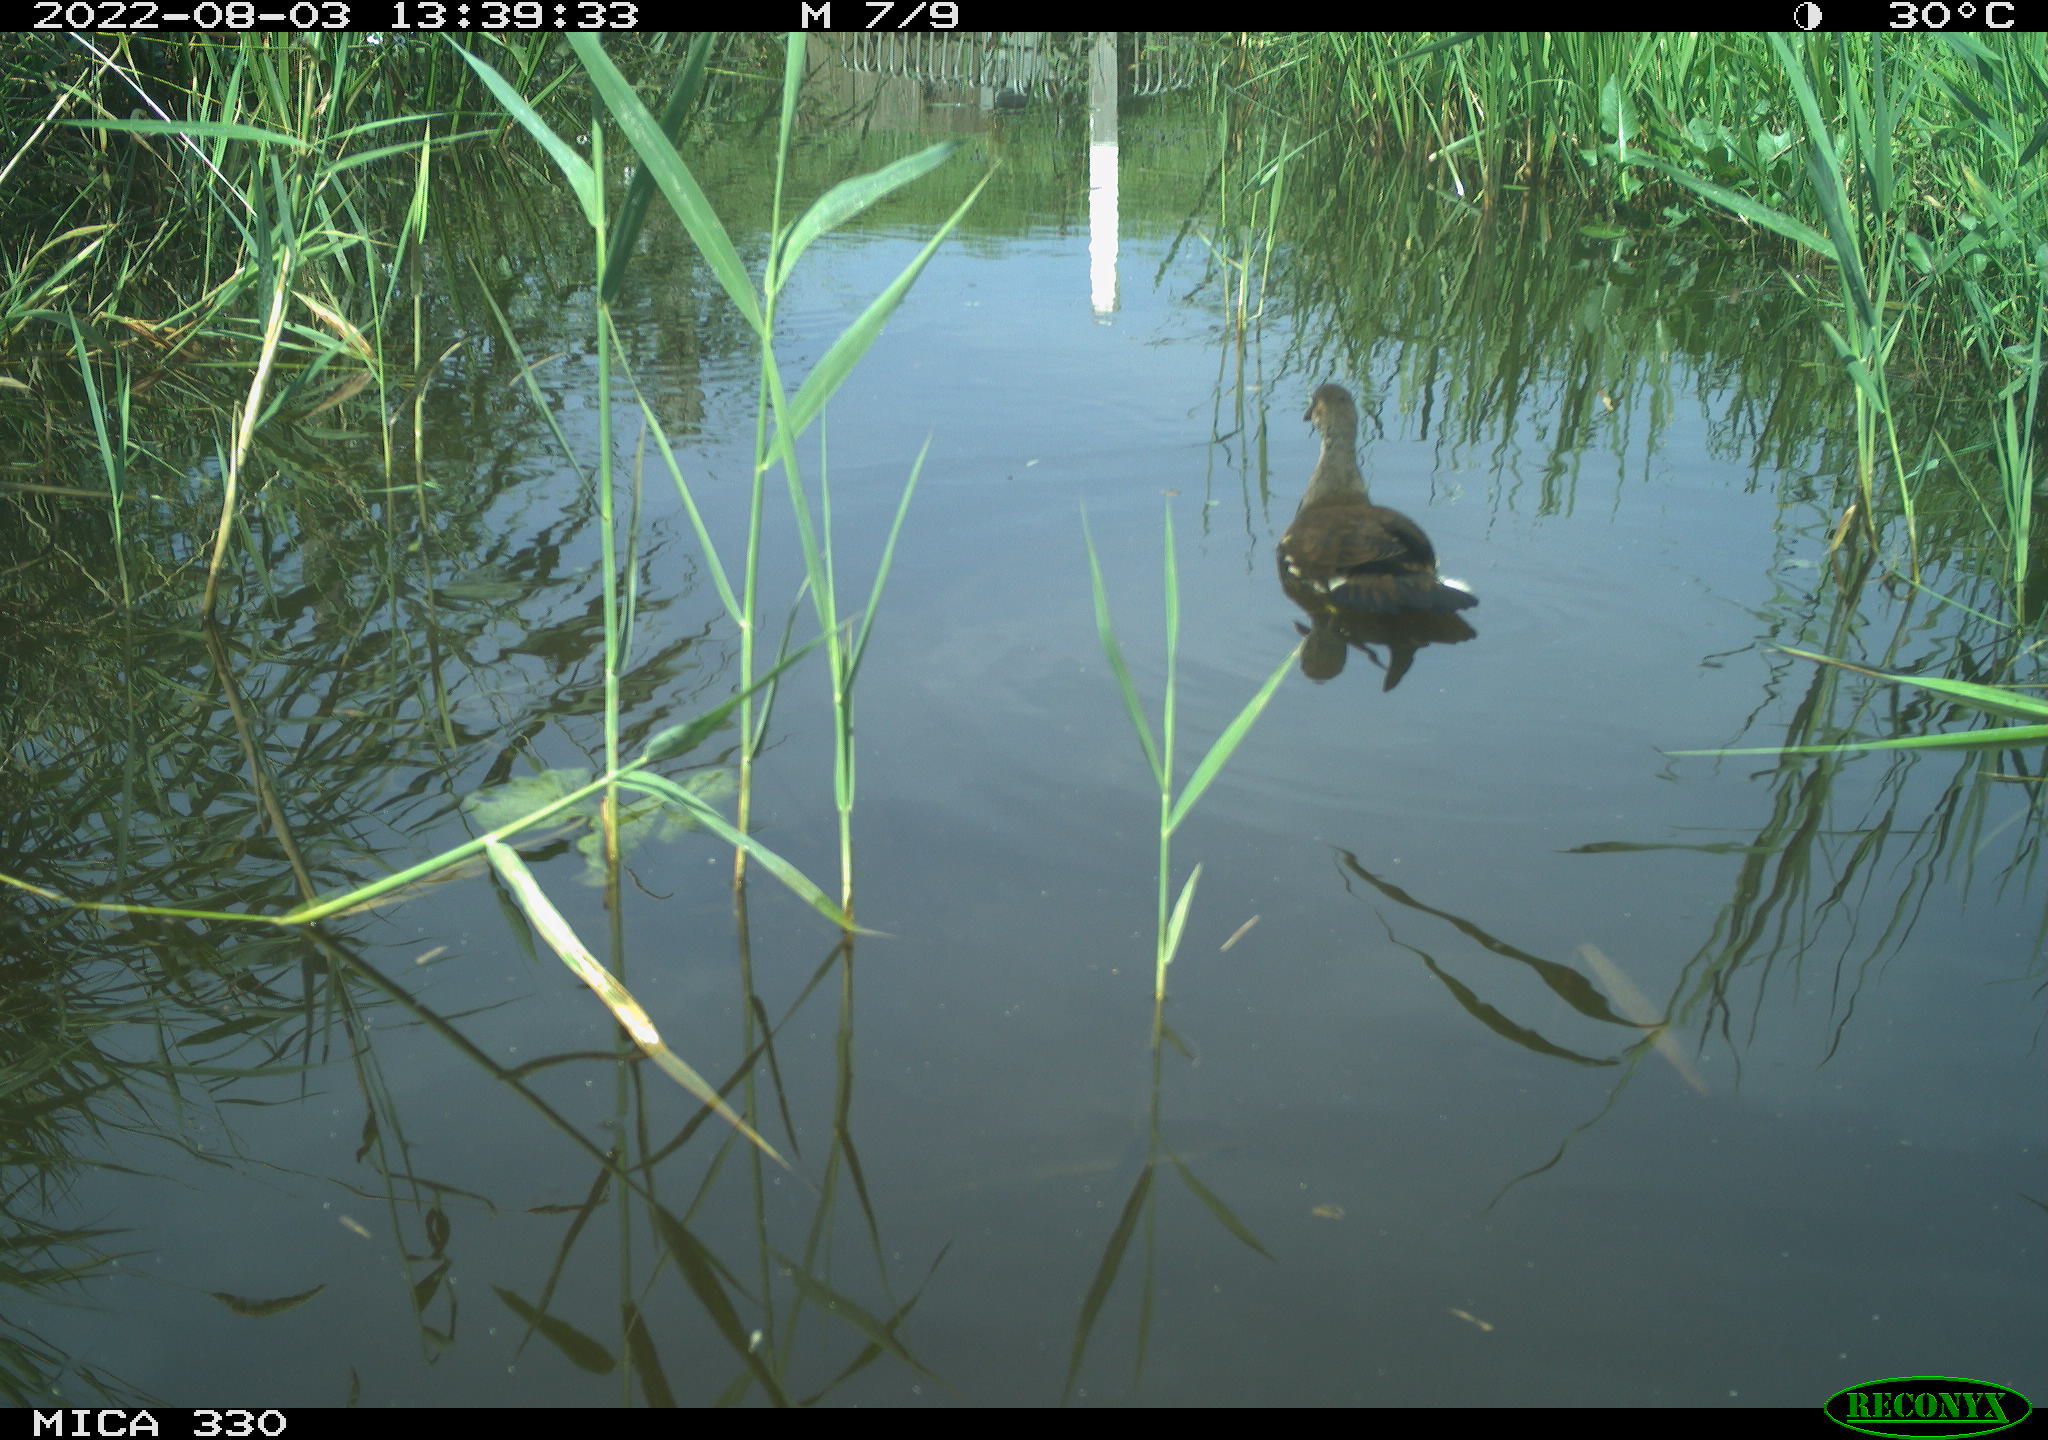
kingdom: Animalia
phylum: Chordata
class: Aves
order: Gruiformes
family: Rallidae
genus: Gallinula
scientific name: Gallinula chloropus
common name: Common moorhen
